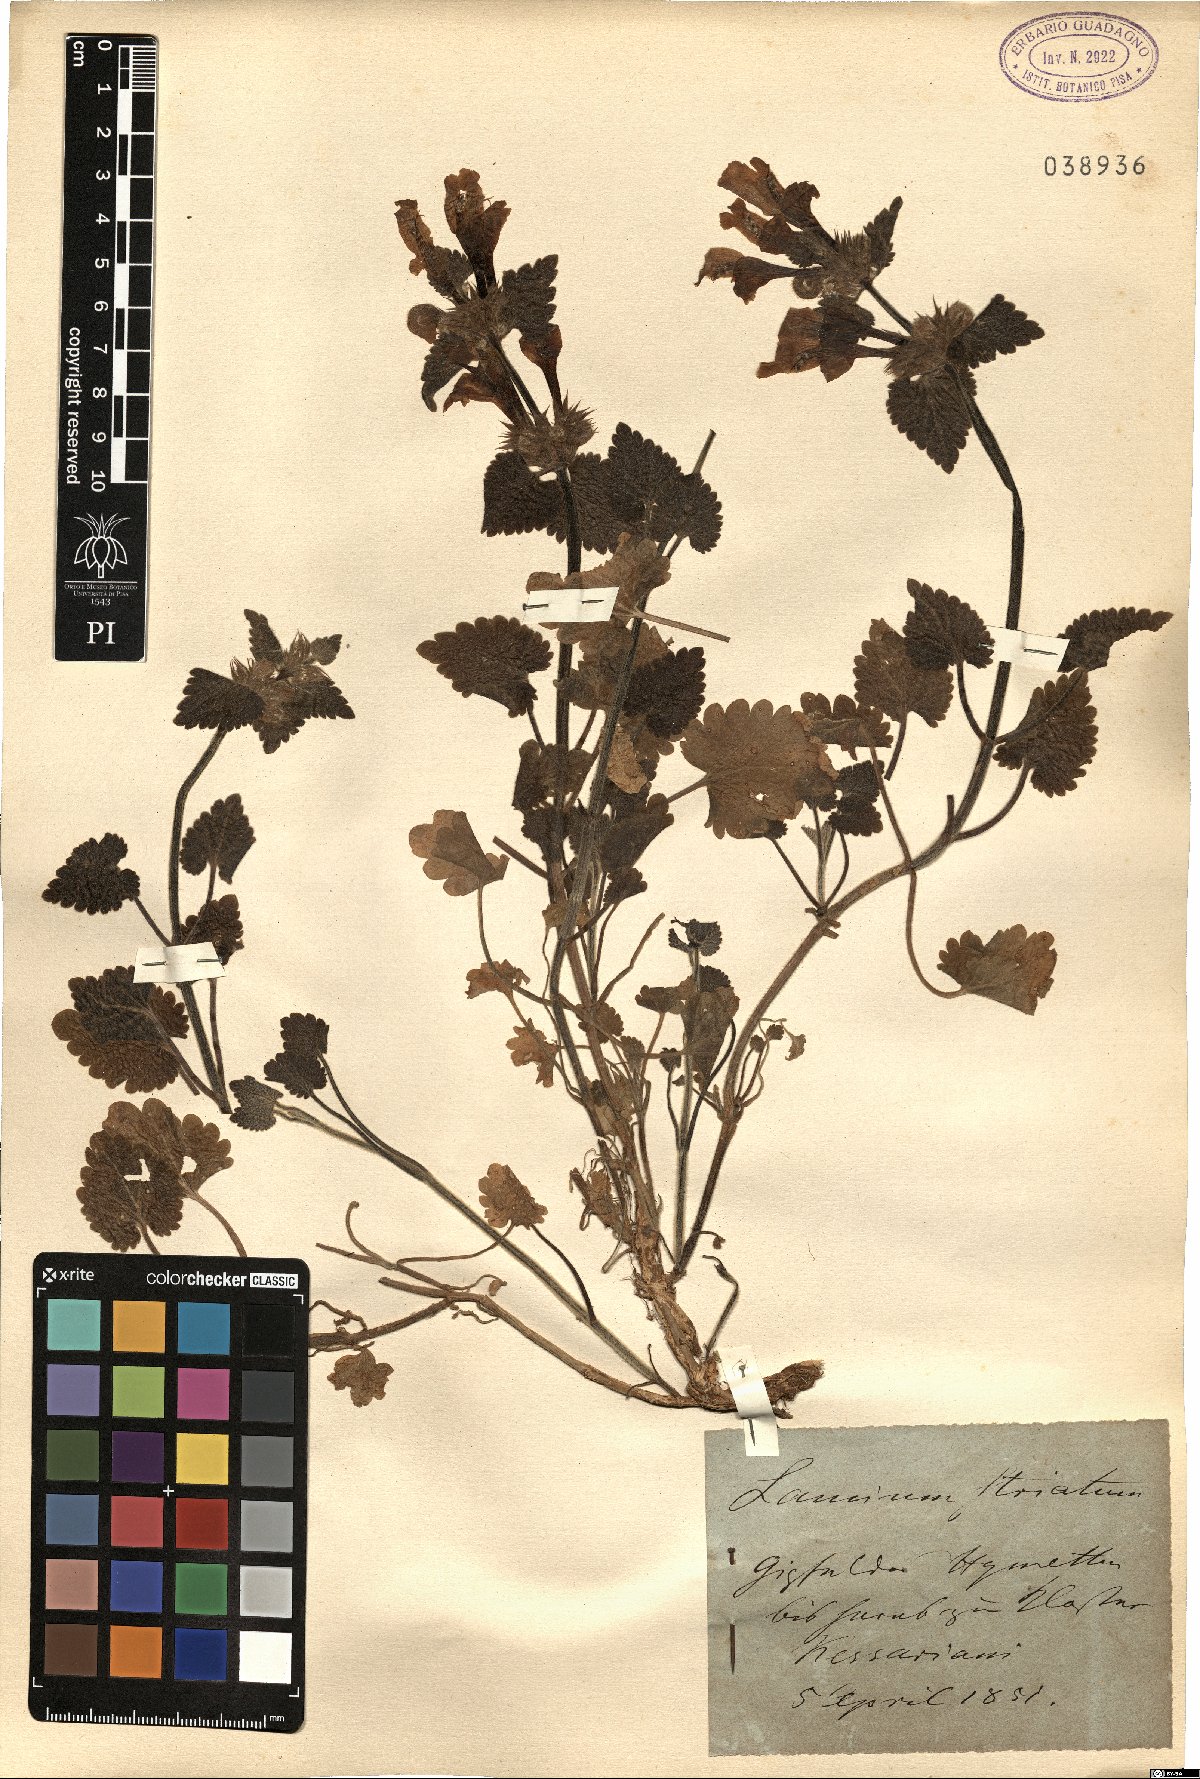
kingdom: Plantae
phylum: Tracheophyta
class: Magnoliopsida
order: Lamiales
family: Lamiaceae
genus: Lamium
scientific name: Lamium garganicum
